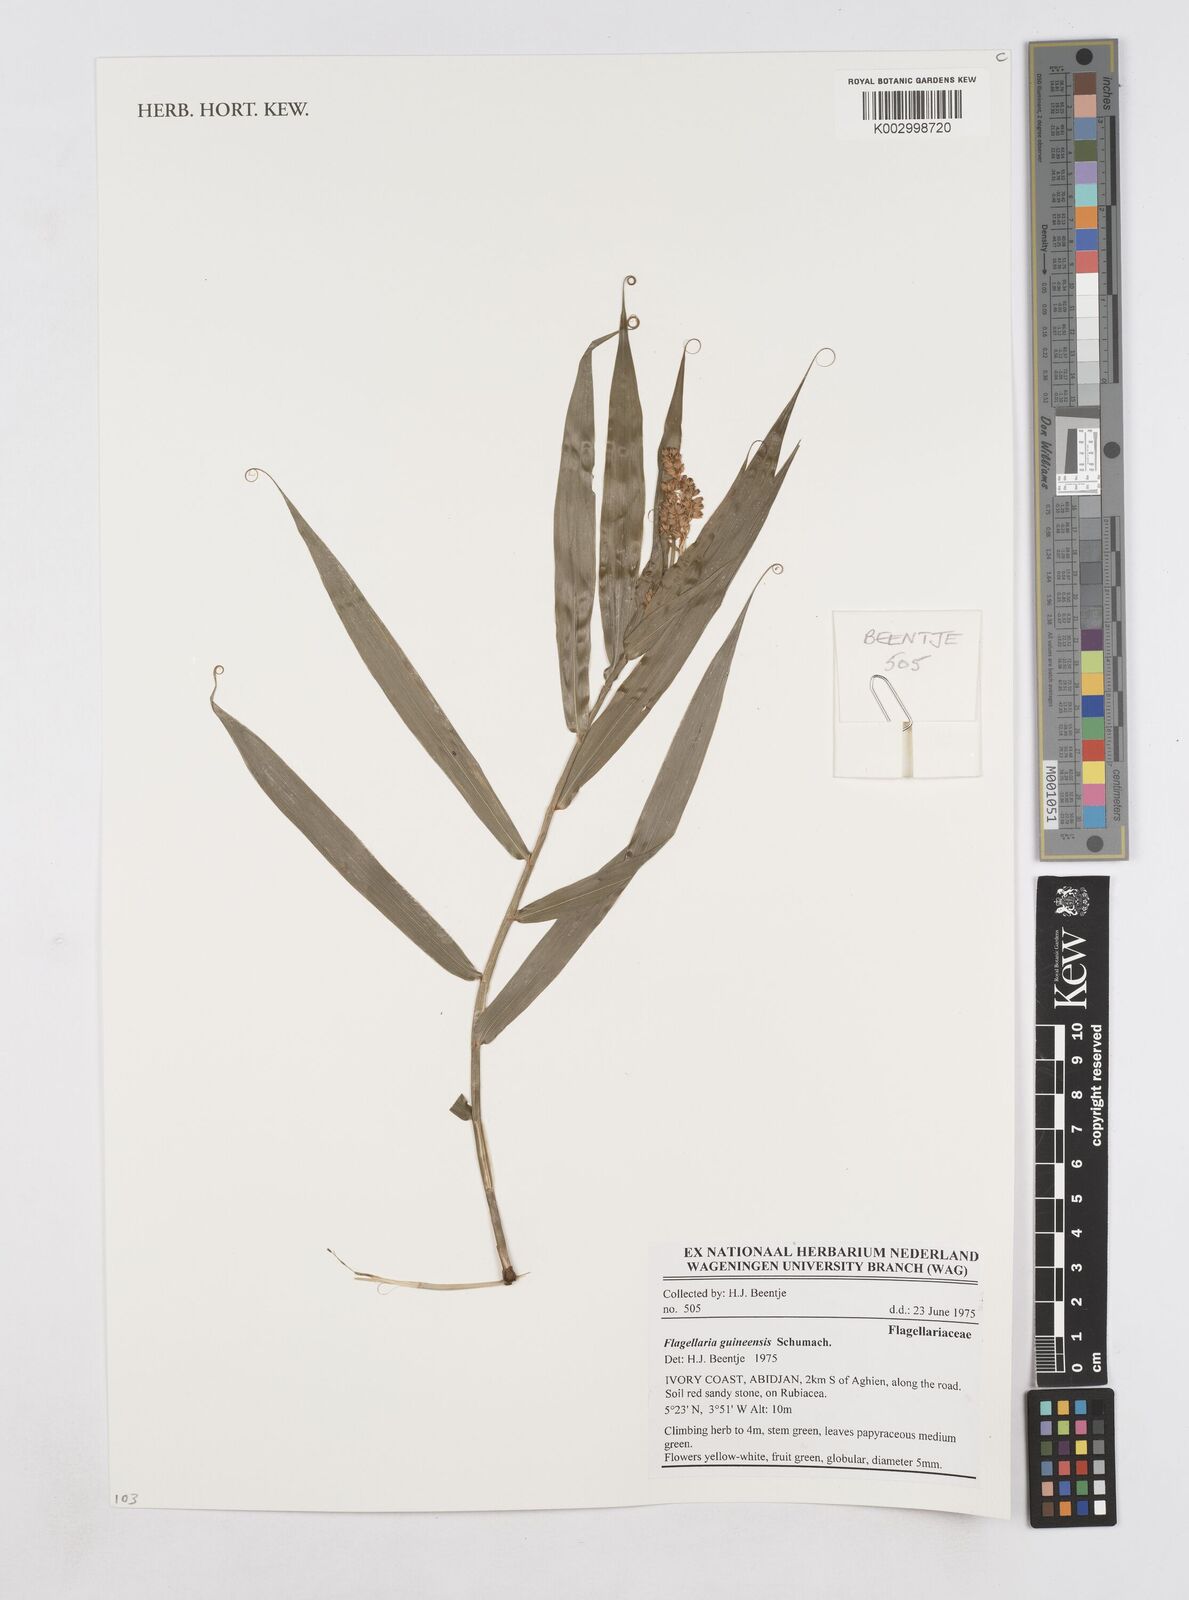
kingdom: Plantae
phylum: Tracheophyta
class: Liliopsida
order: Poales
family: Flagellariaceae
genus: Flagellaria
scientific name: Flagellaria guineensis
